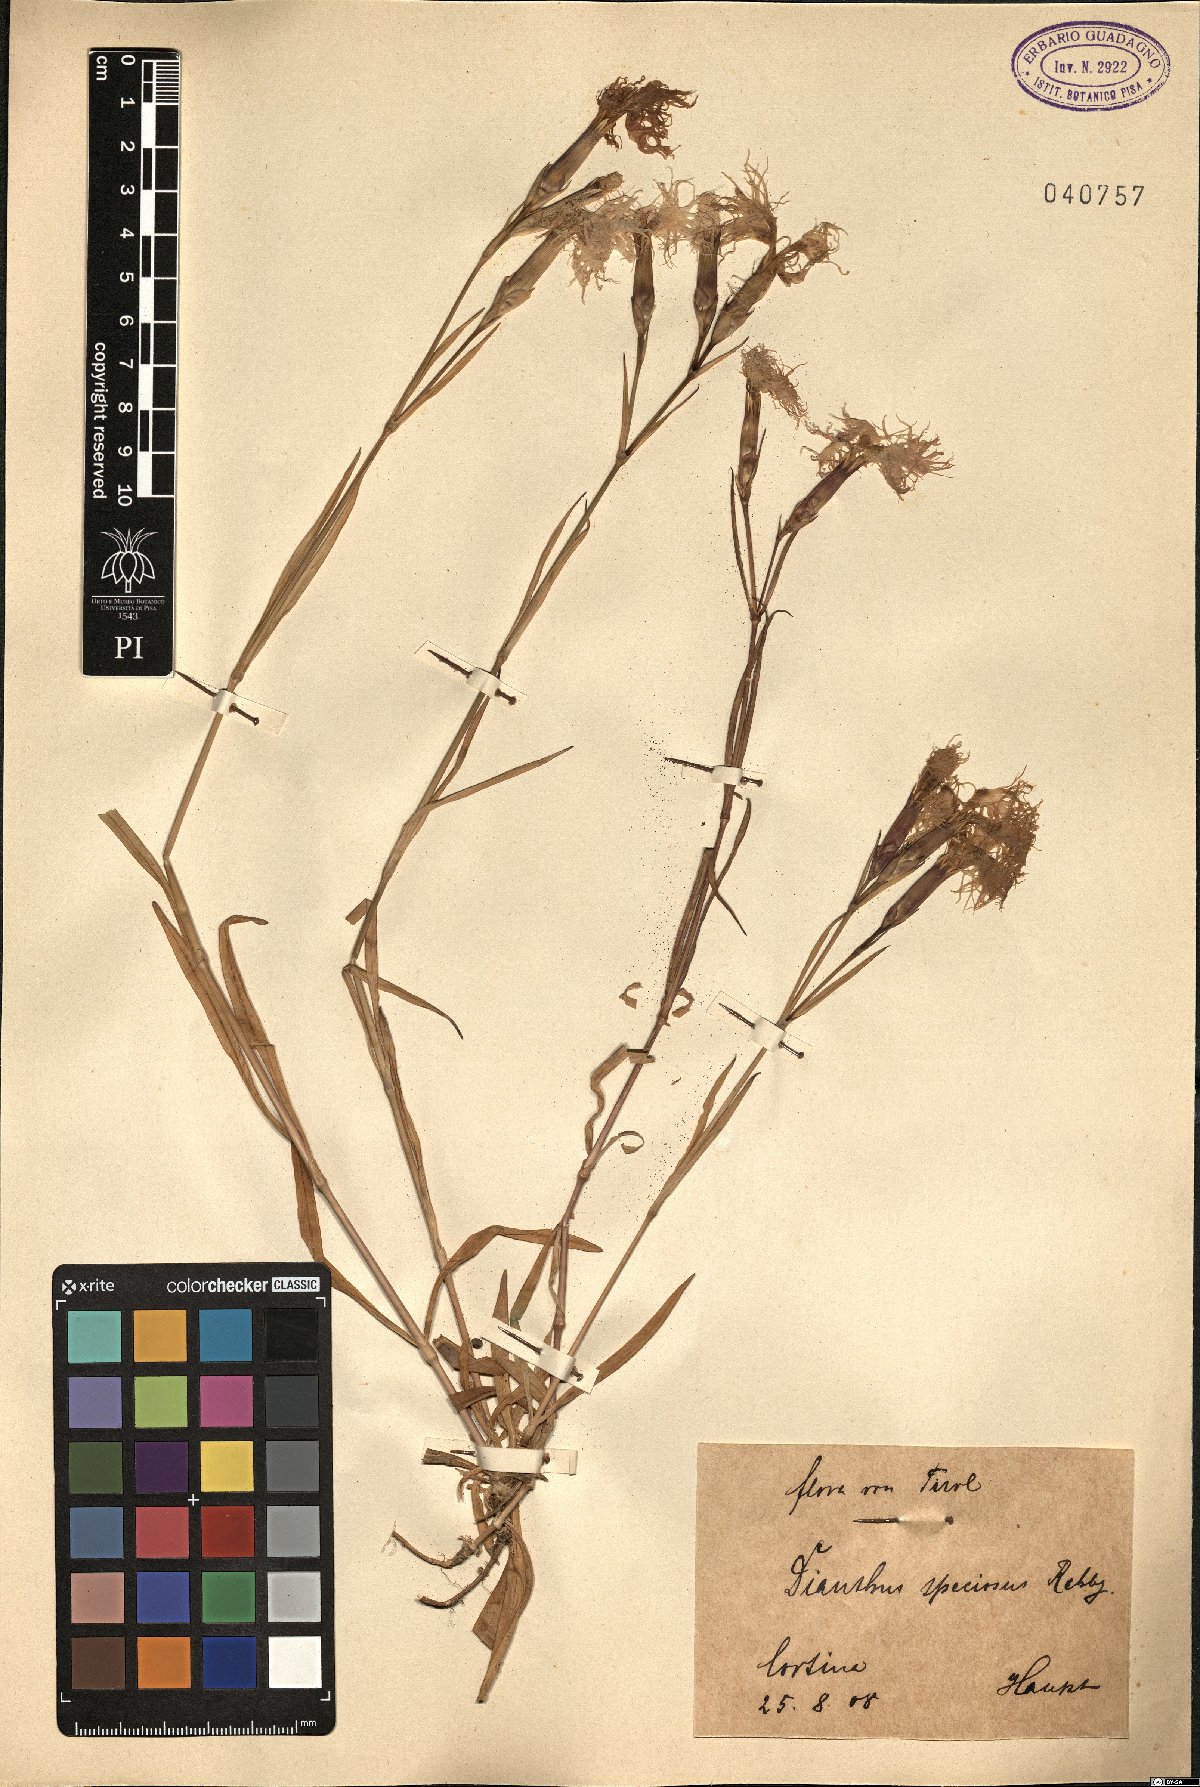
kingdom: Plantae
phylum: Tracheophyta
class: Magnoliopsida
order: Caryophyllales
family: Caryophyllaceae
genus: Dianthus
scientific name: Dianthus superbus
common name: Fringed pink
